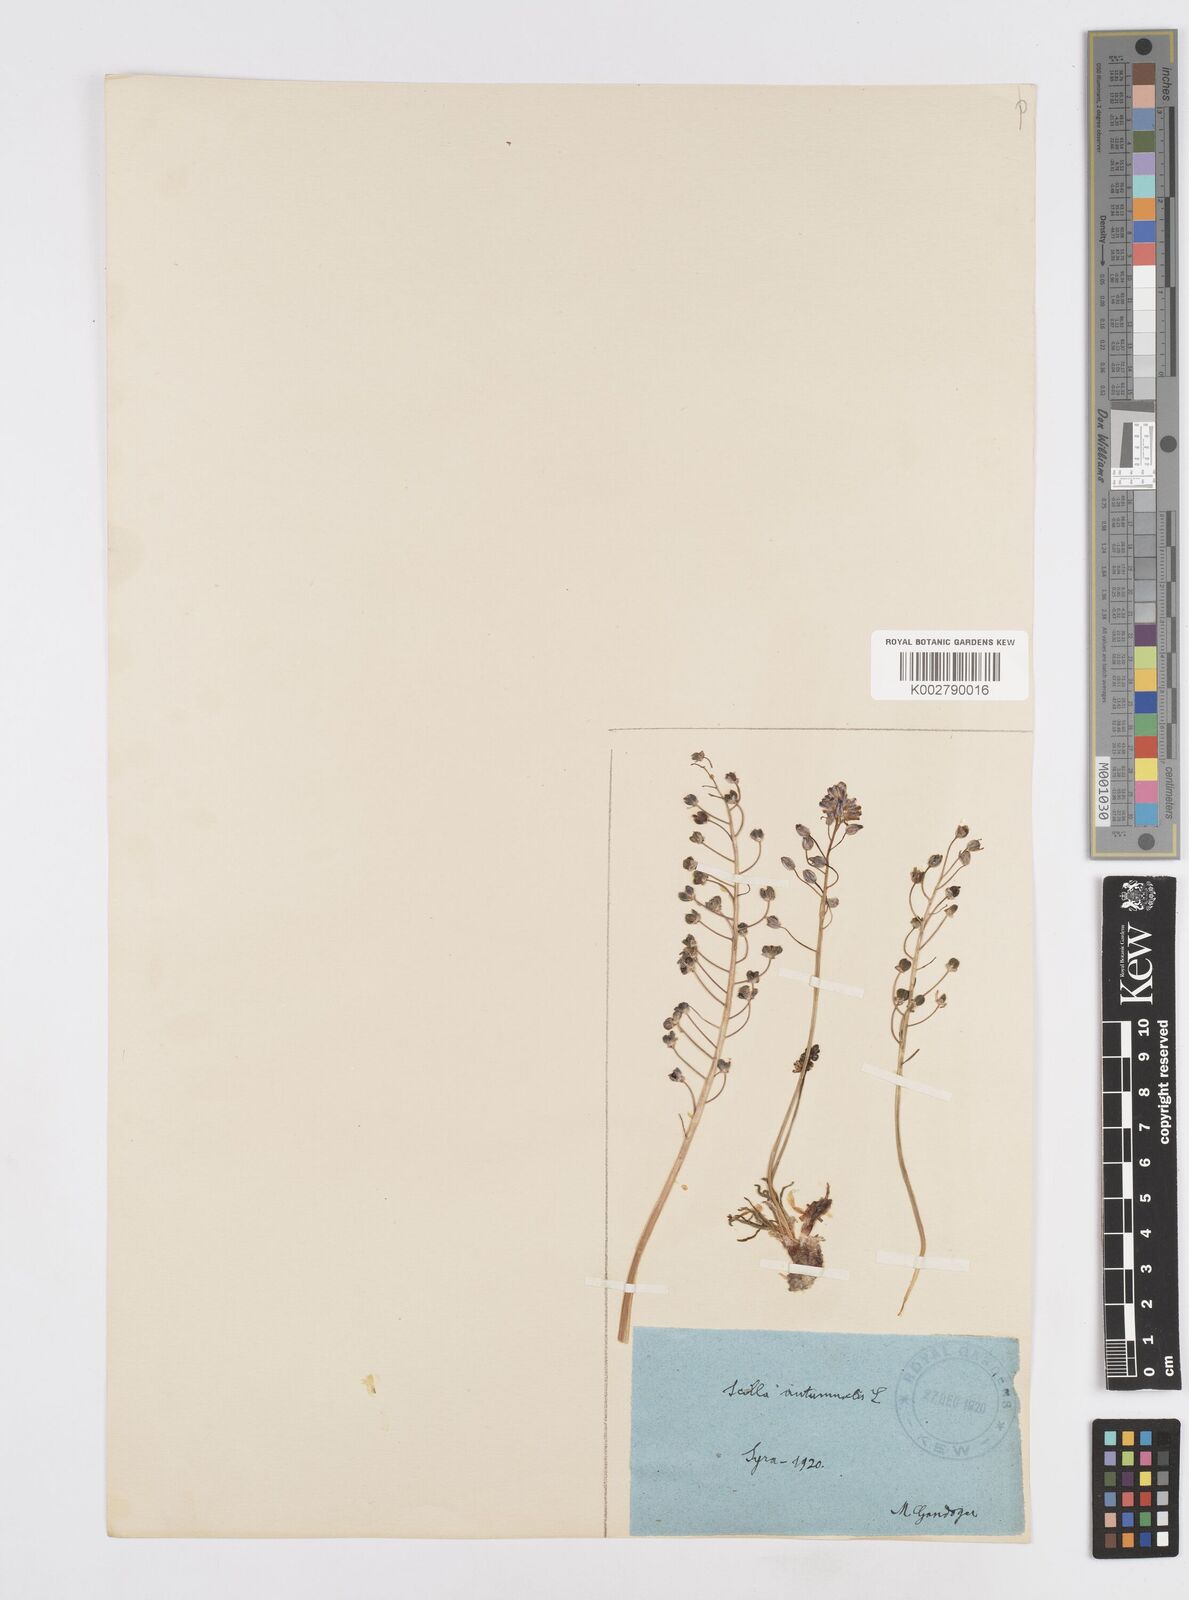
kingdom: Plantae
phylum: Tracheophyta
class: Liliopsida
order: Asparagales
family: Asparagaceae
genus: Prospero
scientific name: Prospero autumnale
